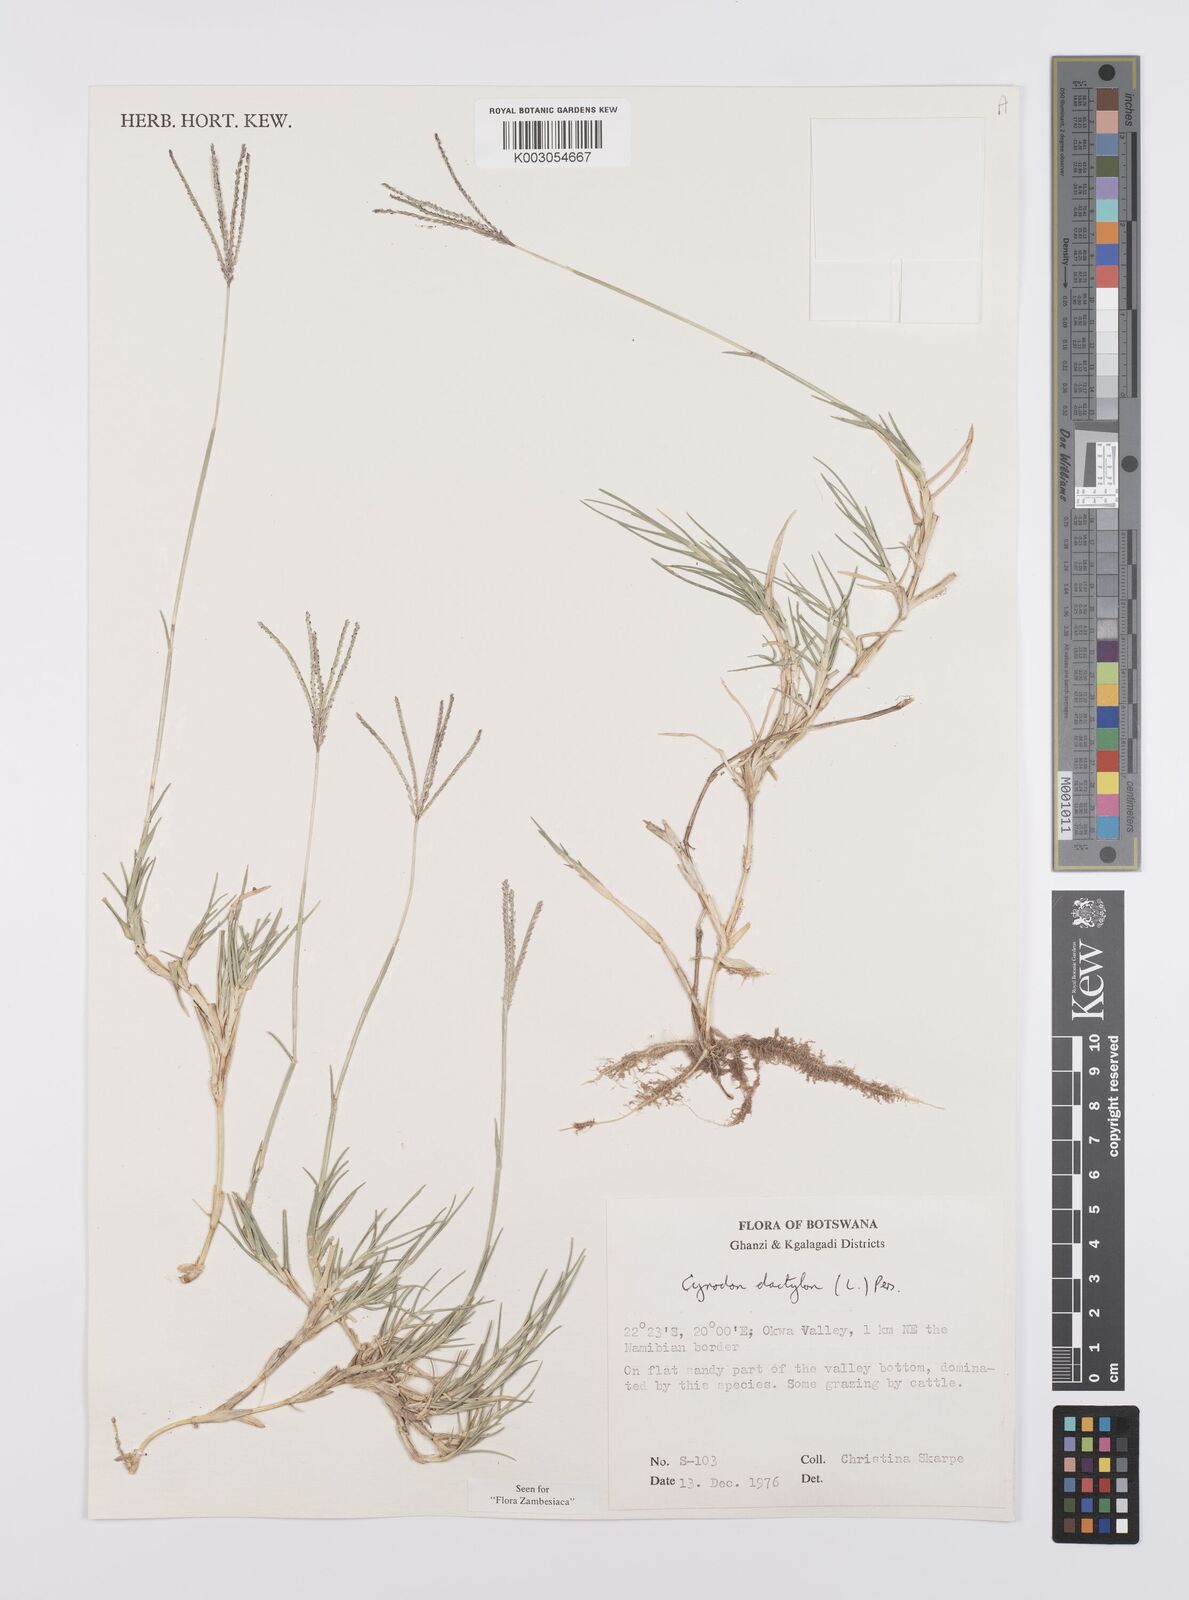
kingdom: Plantae
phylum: Tracheophyta
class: Liliopsida
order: Poales
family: Poaceae
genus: Cynodon
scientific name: Cynodon dactylon
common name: Bermuda grass
